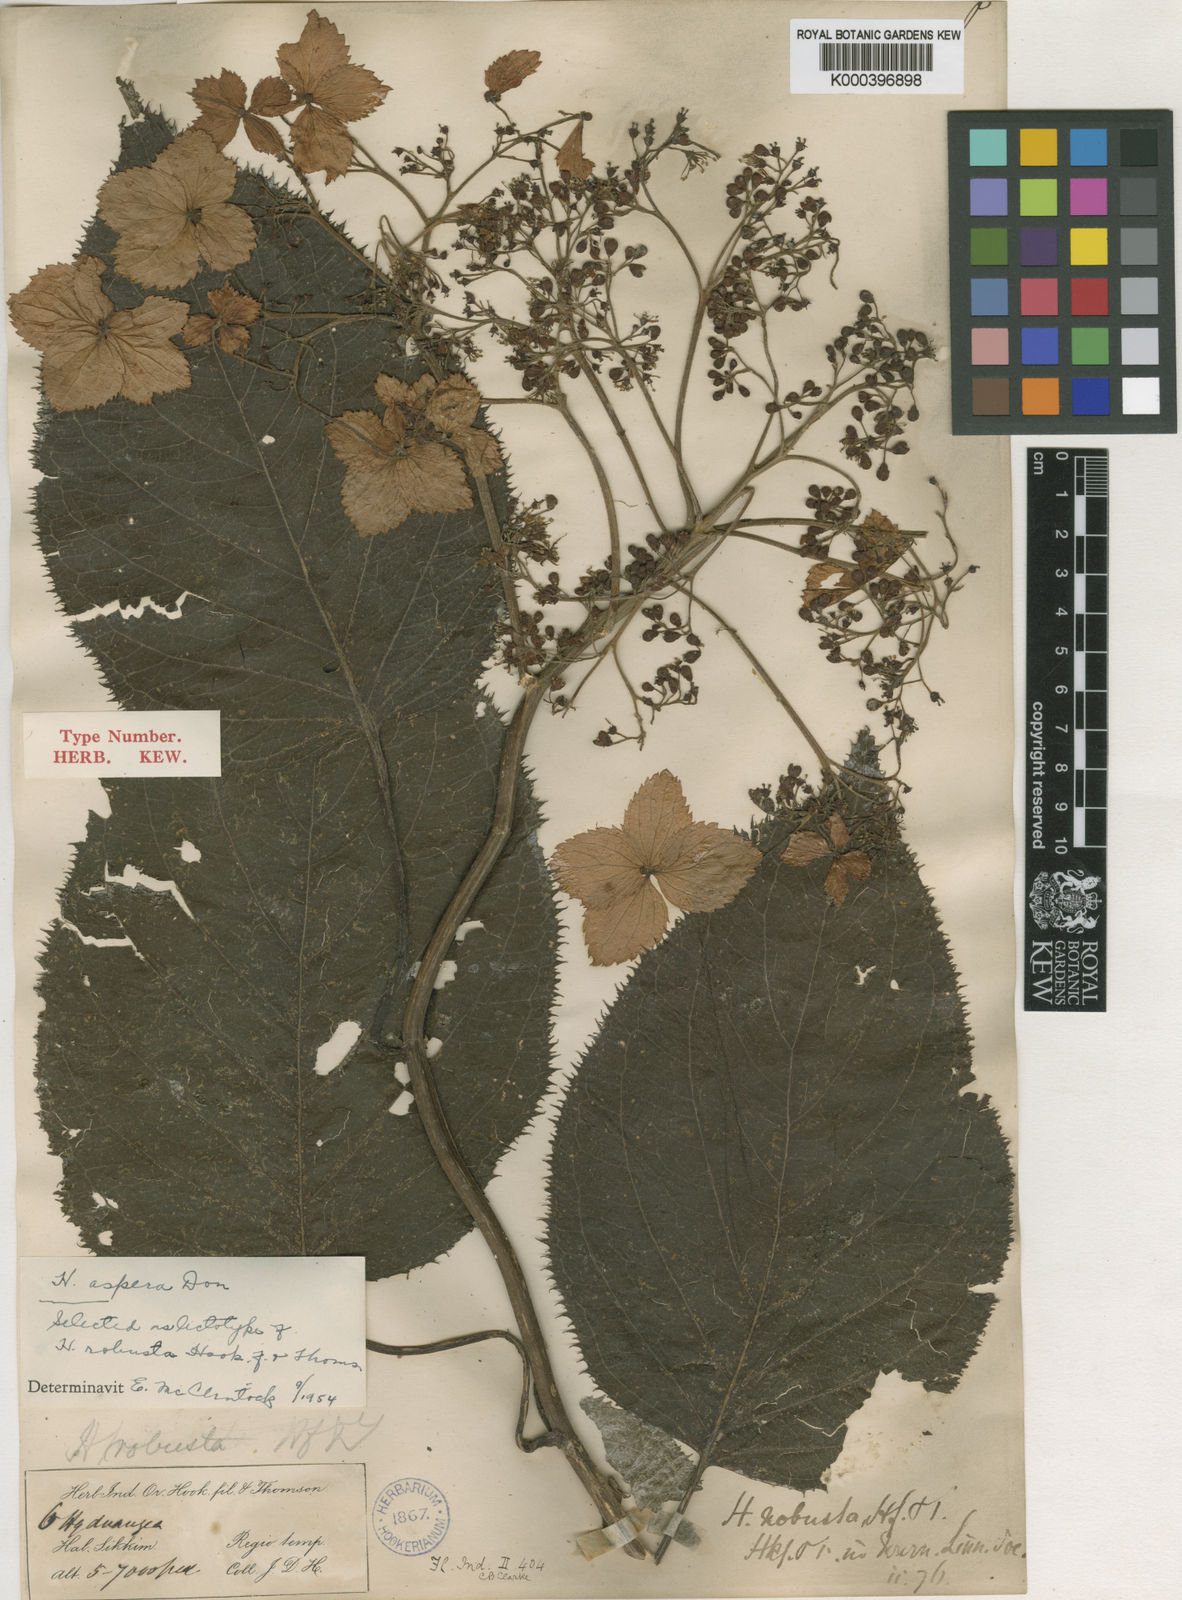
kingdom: Plantae
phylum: Tracheophyta
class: Magnoliopsida
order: Cornales
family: Hydrangeaceae
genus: Hydrangea
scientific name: Hydrangea aspera
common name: Rough-leaf hydrangea
